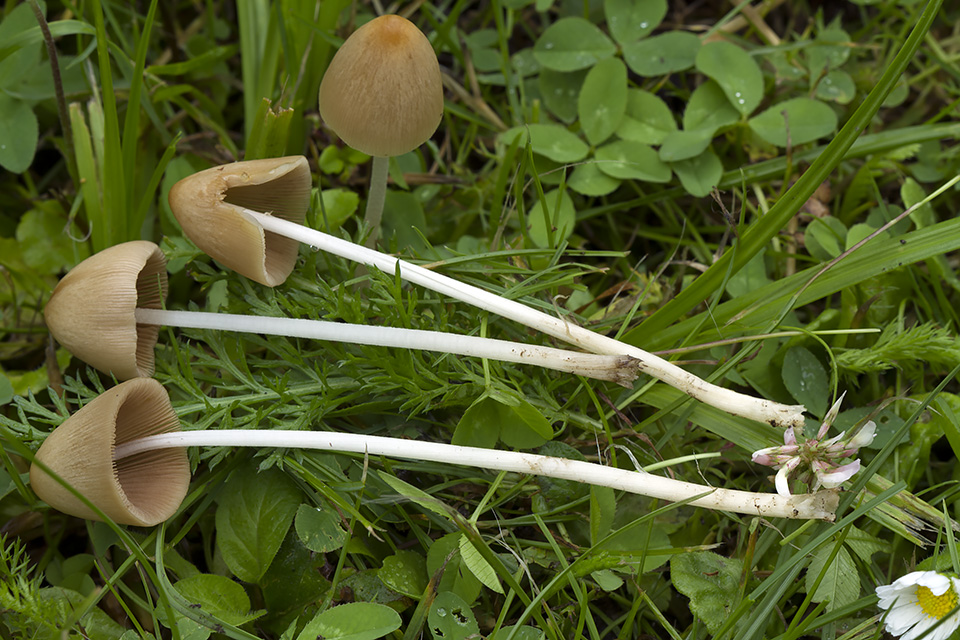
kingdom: Fungi
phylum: Basidiomycota
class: Agaricomycetes
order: Agaricales
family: Bolbitiaceae
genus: Conocybe
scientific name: Conocybe apala
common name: køllestokket keglehat
